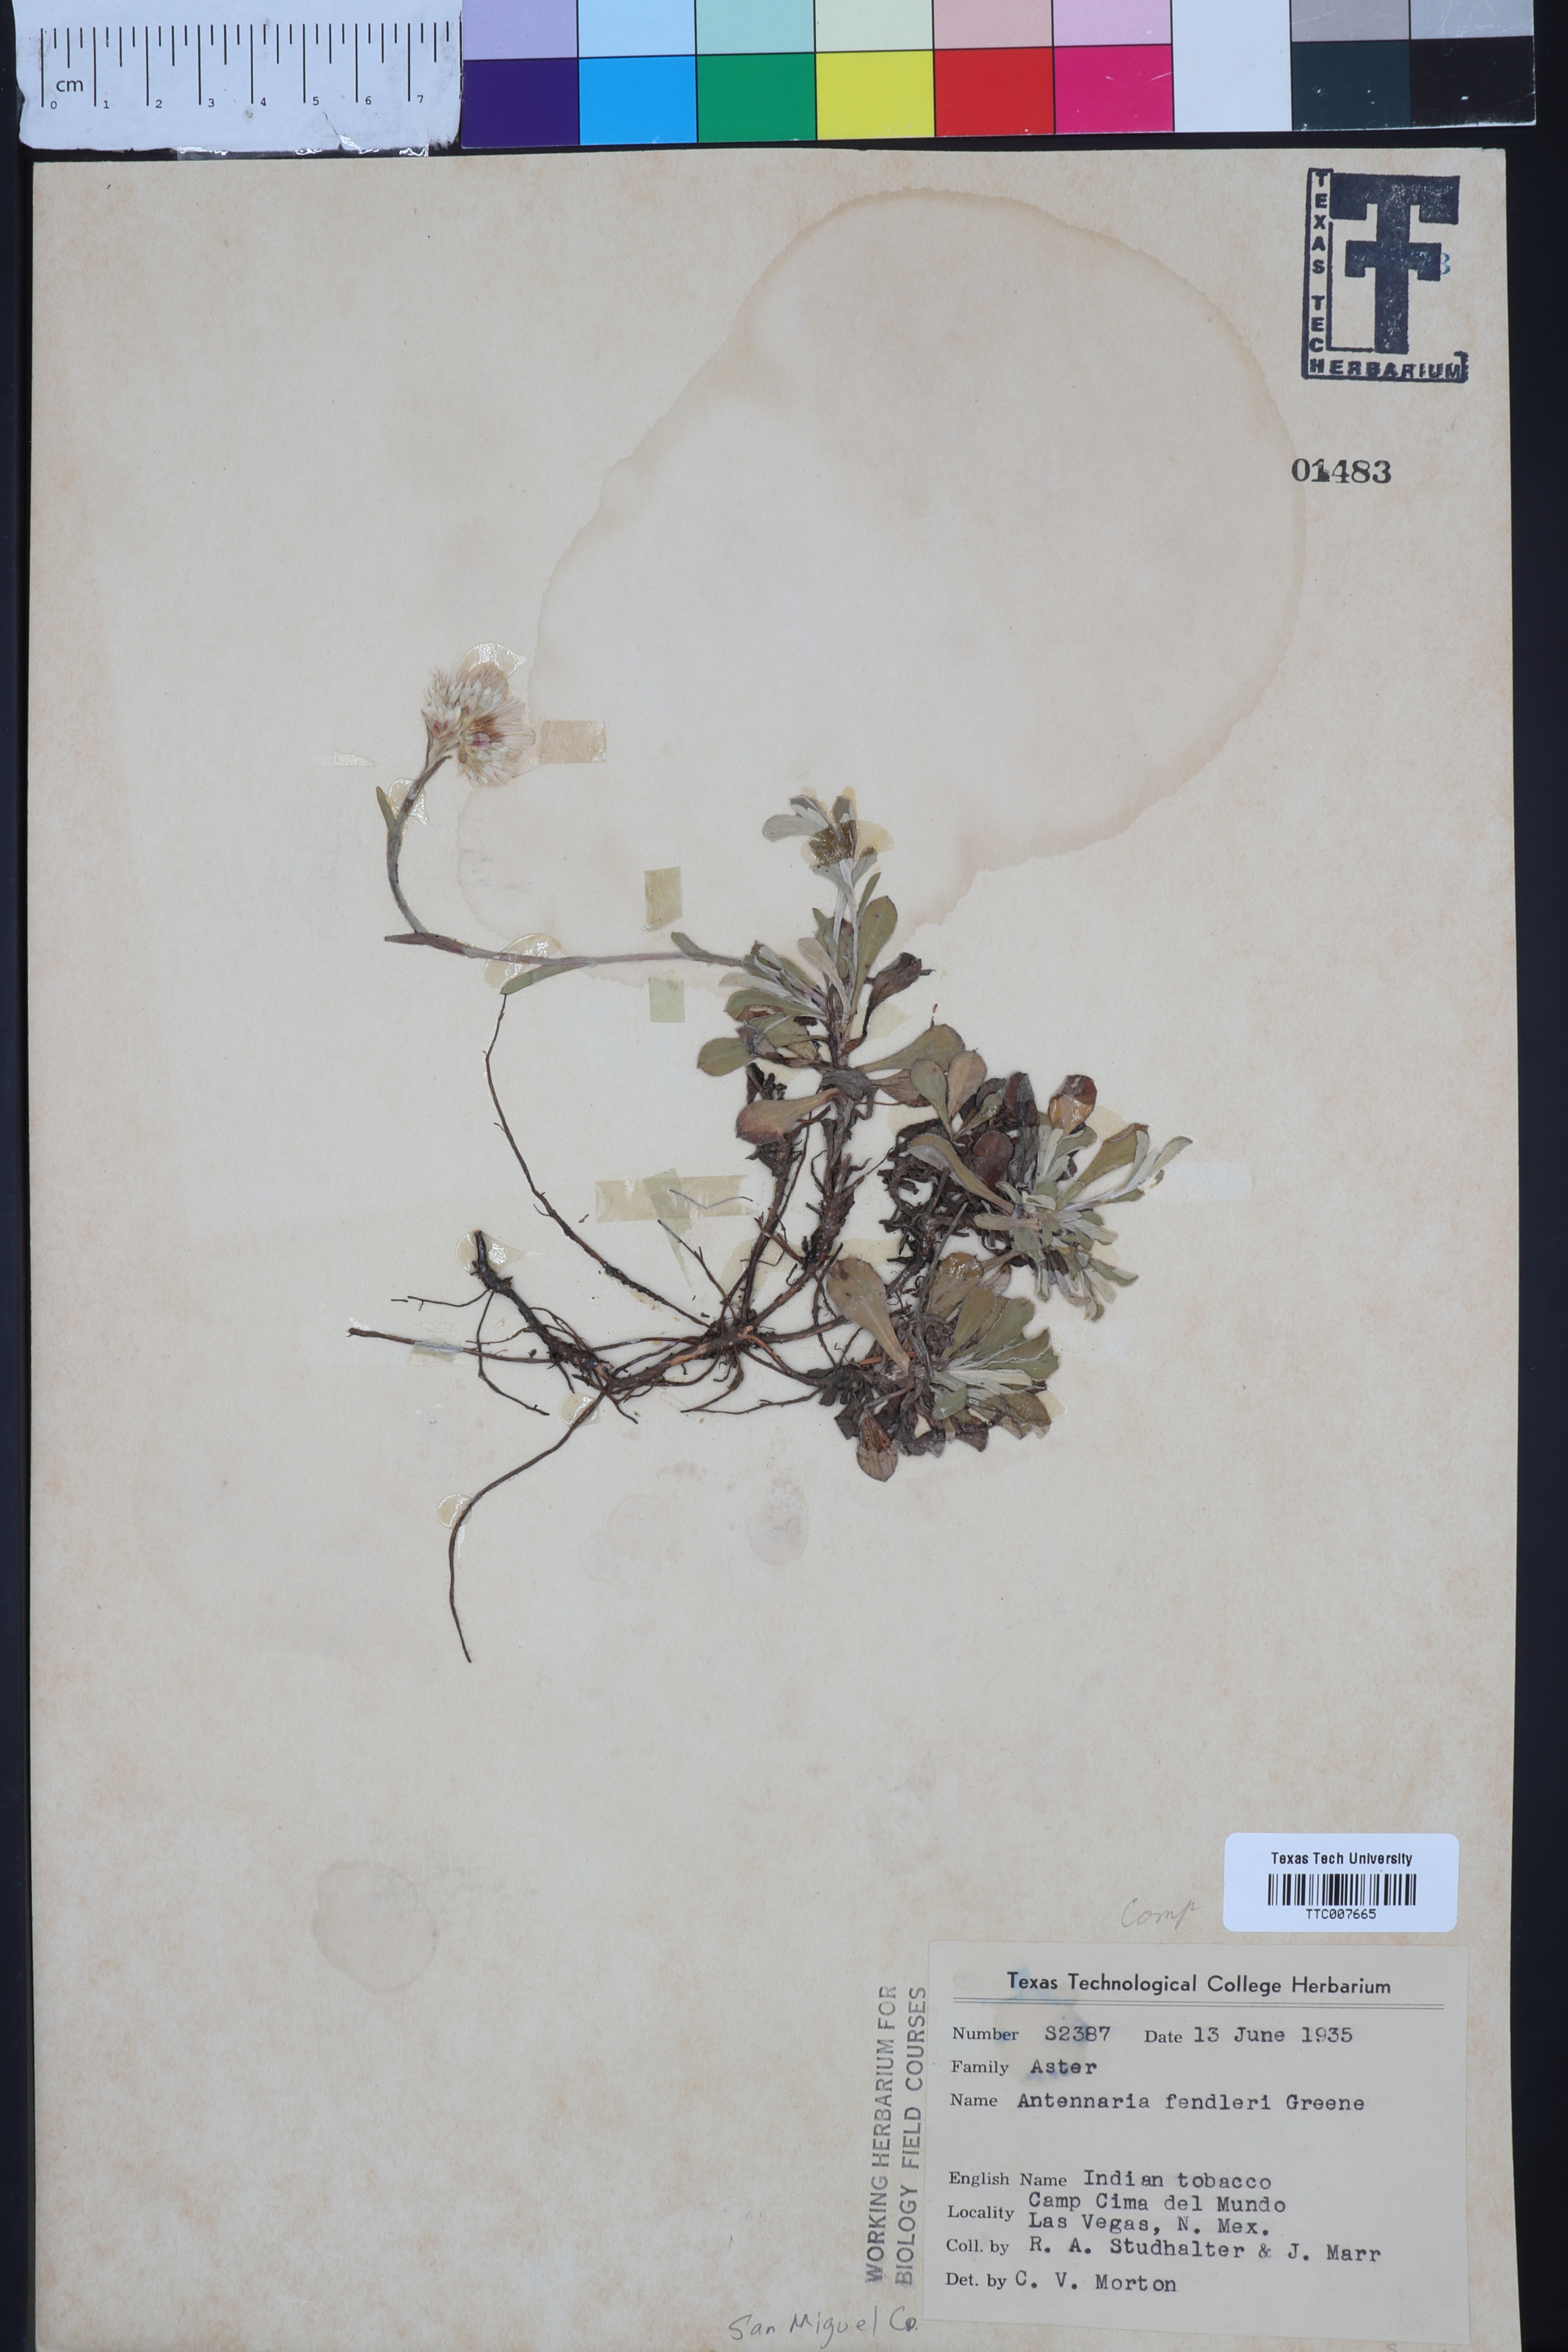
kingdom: Plantae
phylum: Tracheophyta
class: Magnoliopsida
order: Asterales
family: Asteraceae
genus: Antennaria
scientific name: Antennaria marginata
